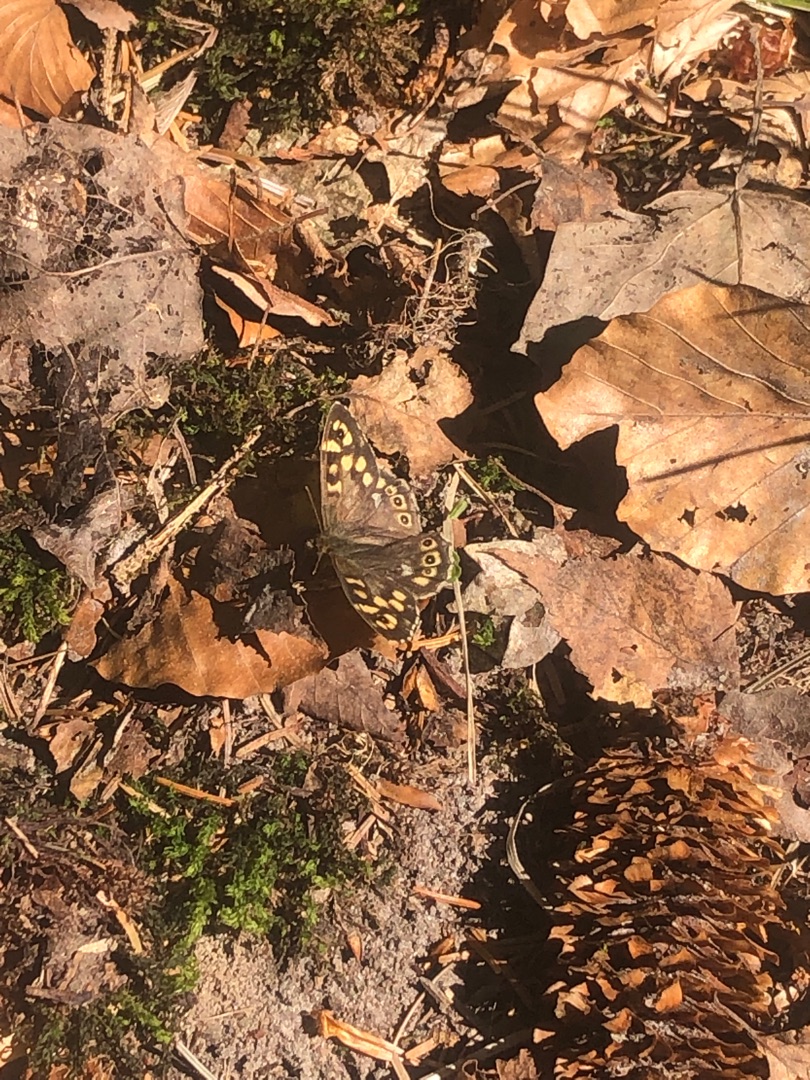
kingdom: Animalia
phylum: Arthropoda
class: Insecta
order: Lepidoptera
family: Nymphalidae
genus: Pararge
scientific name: Pararge aegeria
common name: Skovrandøje
